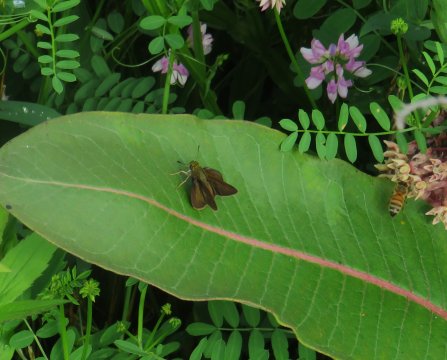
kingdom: Animalia
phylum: Arthropoda
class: Insecta
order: Lepidoptera
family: Hesperiidae
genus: Euphyes
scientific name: Euphyes vestris
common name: Dun Skipper
